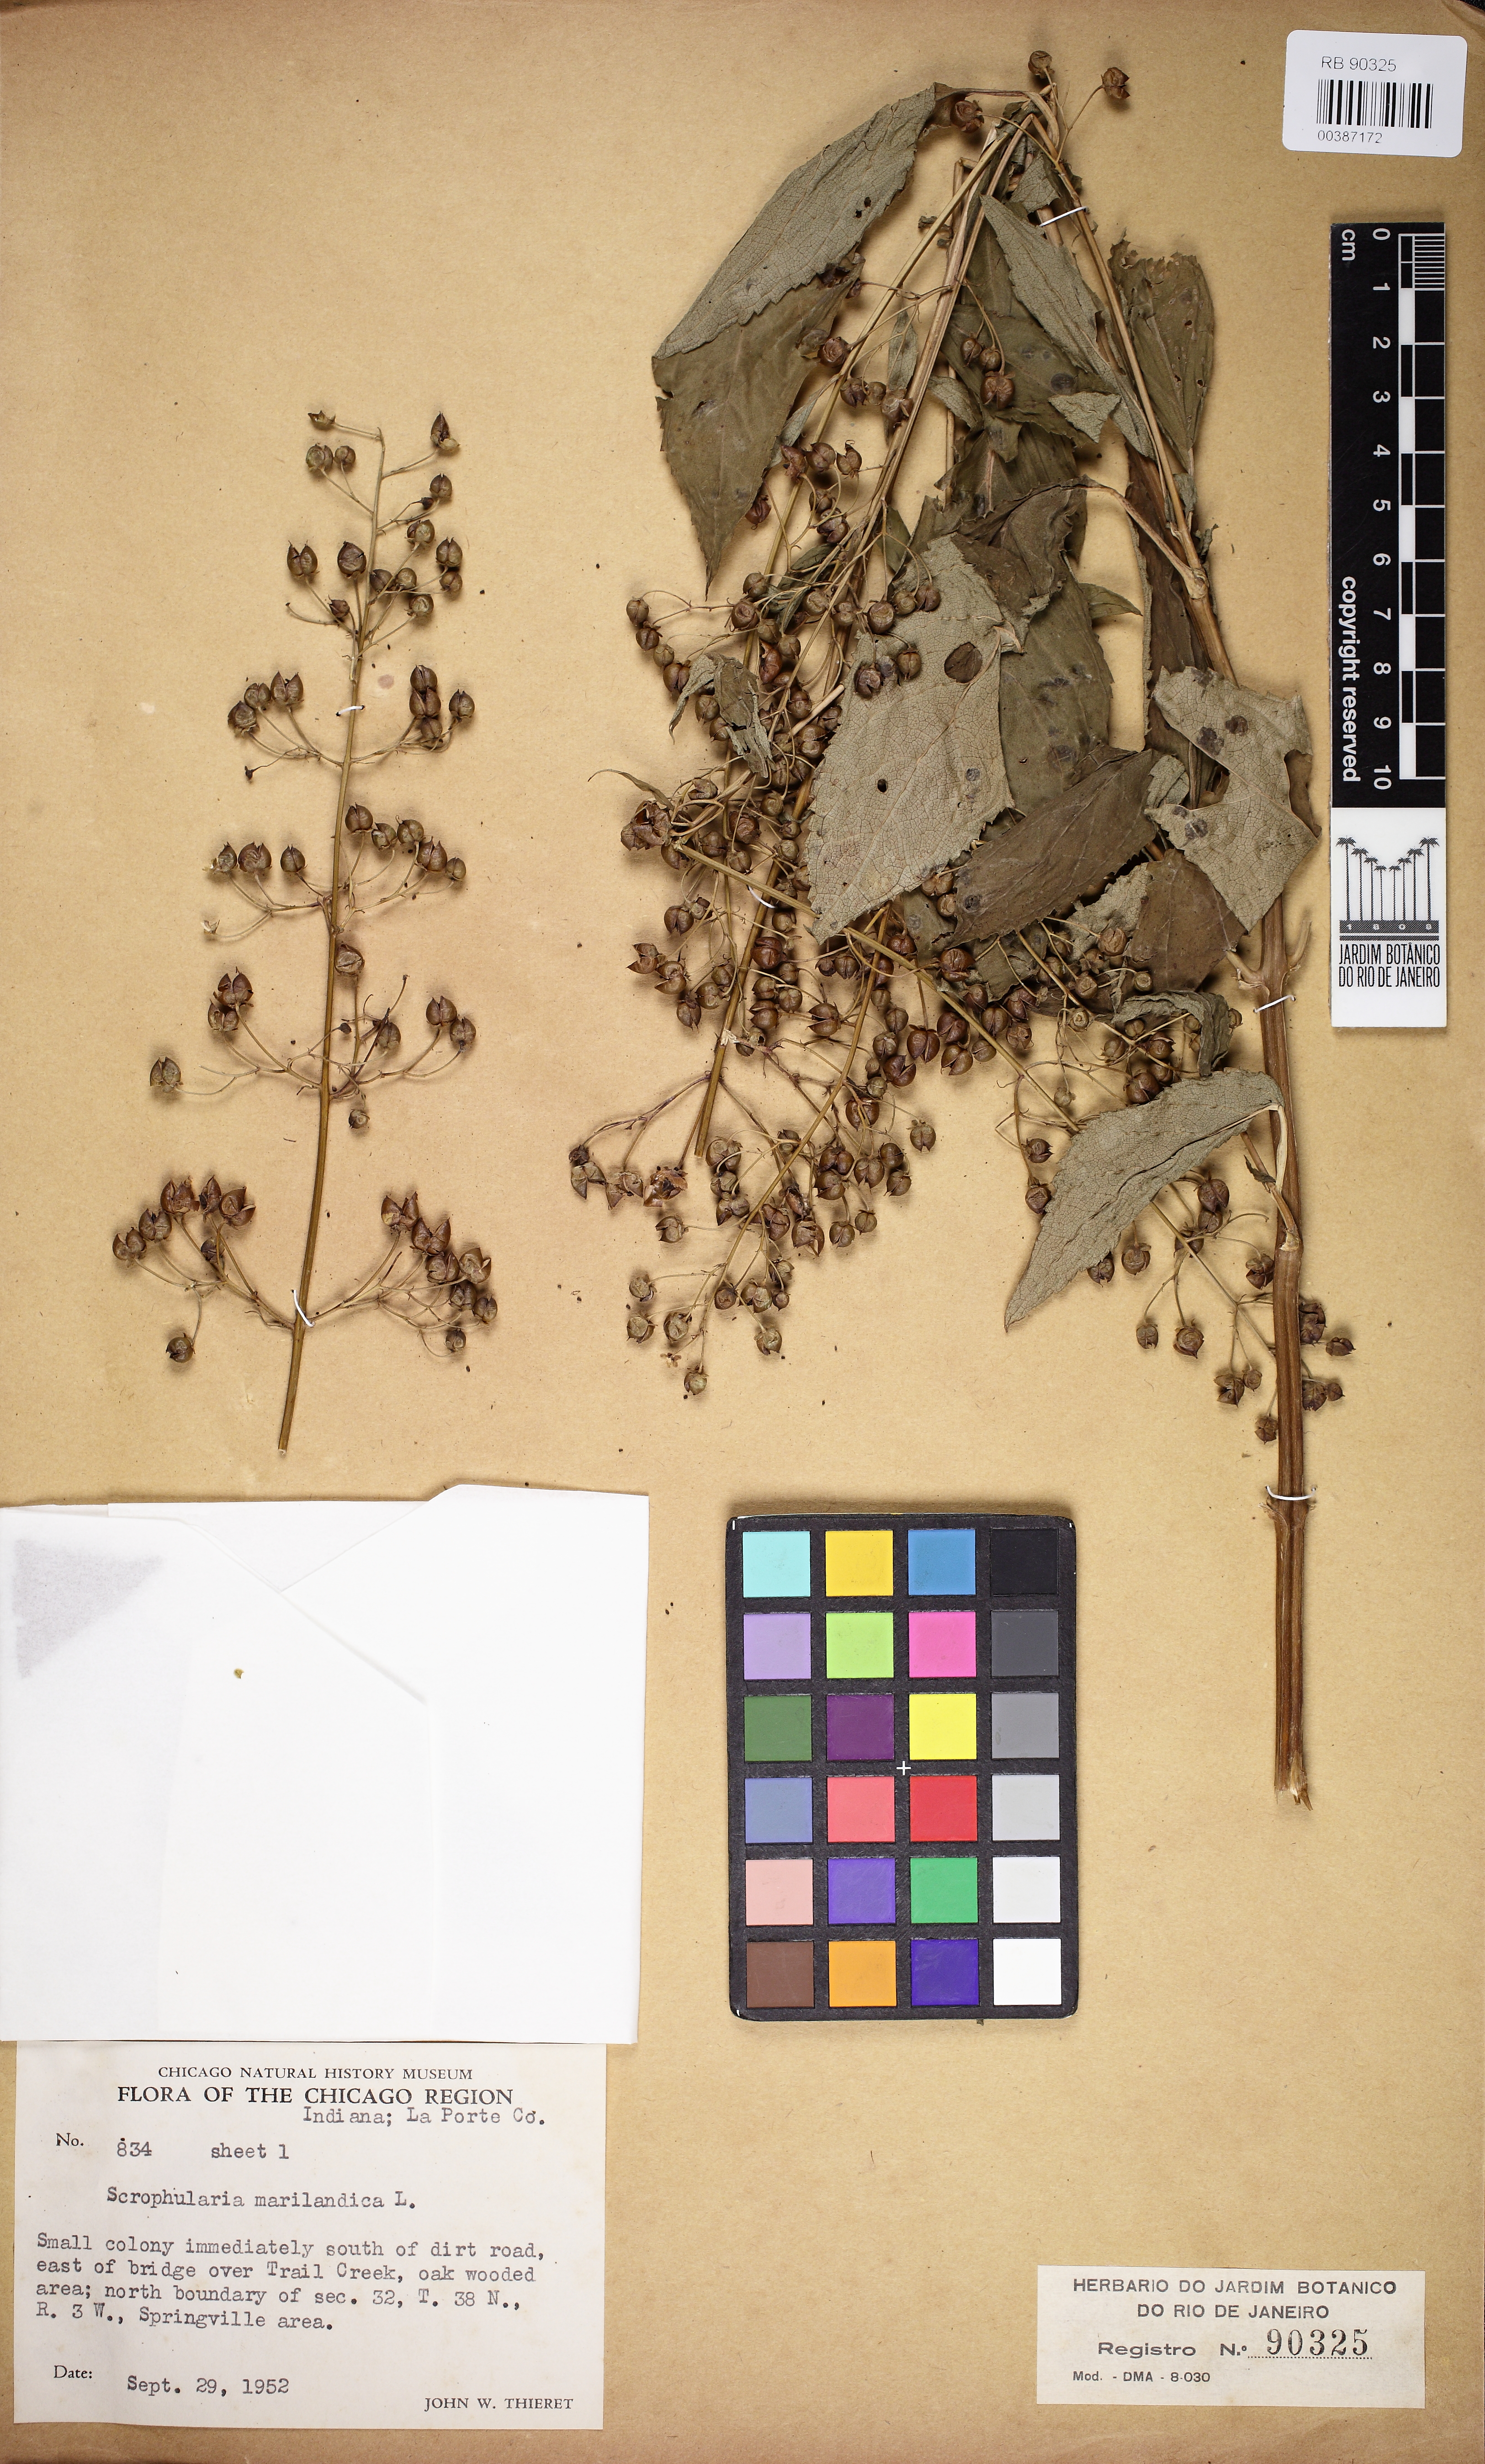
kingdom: Plantae
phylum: Tracheophyta
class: Magnoliopsida
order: Lamiales
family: Scrophulariaceae
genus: Scrophularia
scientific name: Scrophularia marilandica
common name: Eastern figwort
